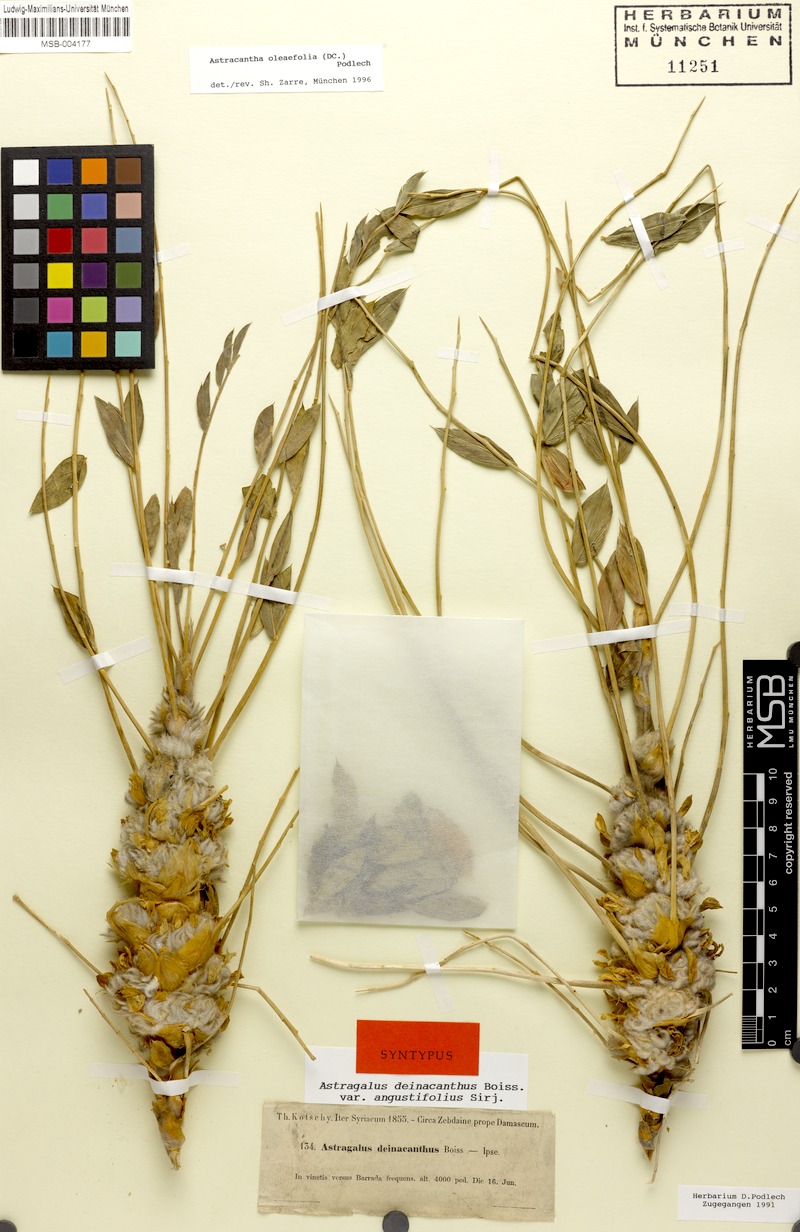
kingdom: Plantae
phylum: Tracheophyta
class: Magnoliopsida
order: Fabales
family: Fabaceae
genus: Astragalus
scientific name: Astragalus oleifolius
